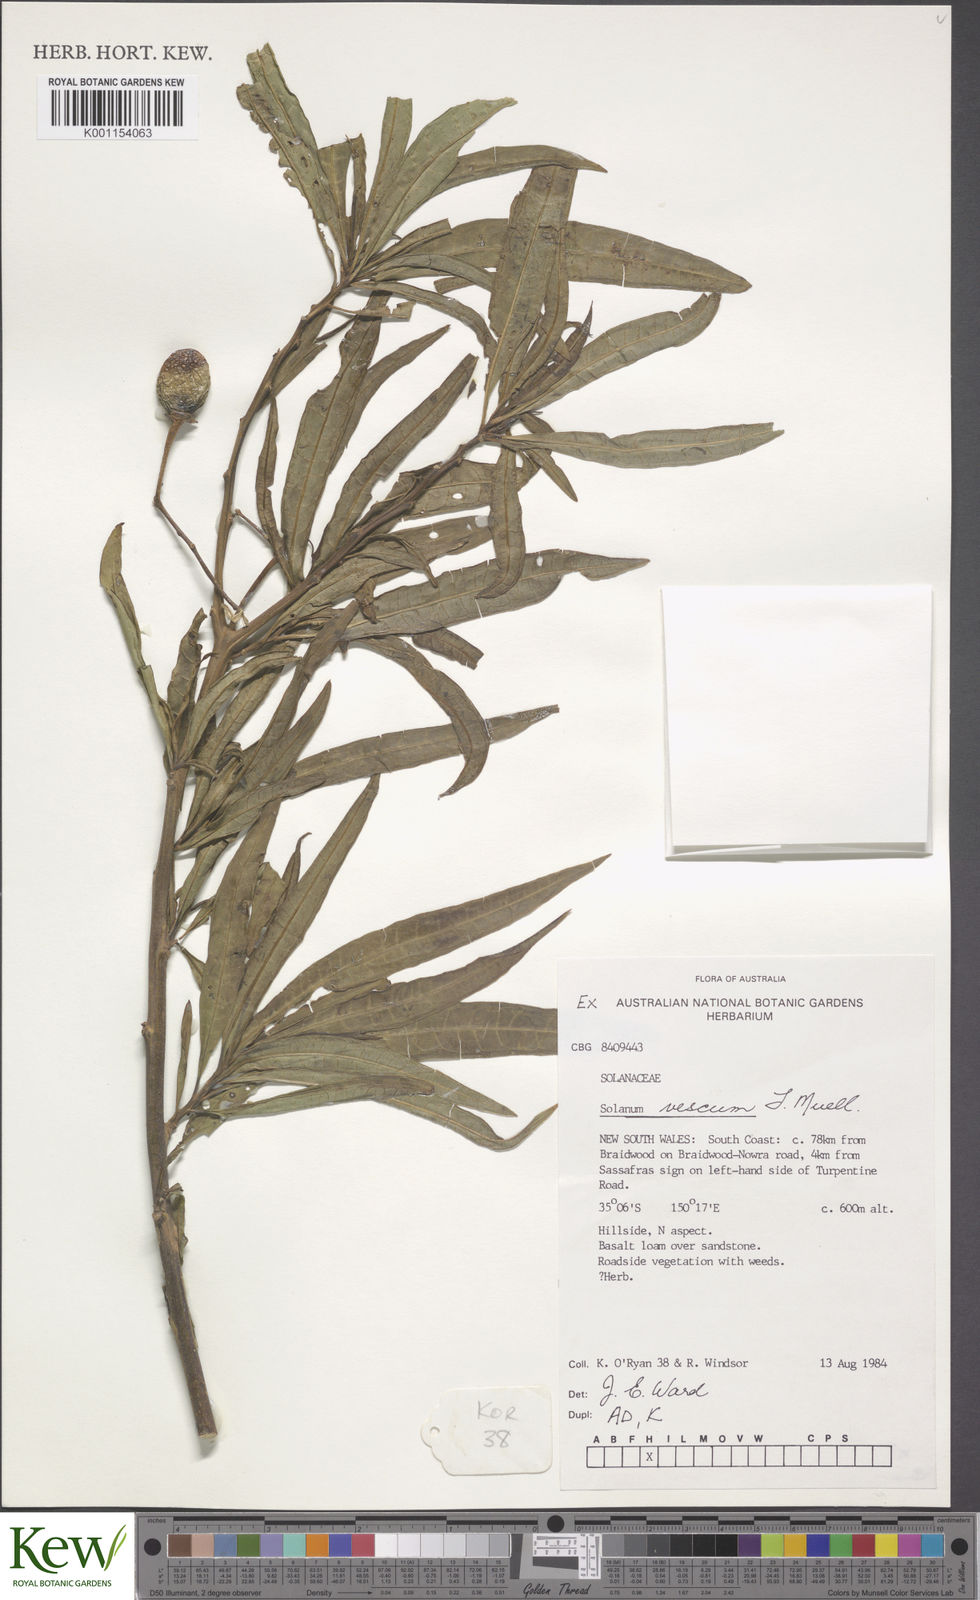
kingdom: Plantae
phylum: Tracheophyta
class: Magnoliopsida
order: Solanales
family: Solanaceae
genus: Solanum
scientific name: Solanum
